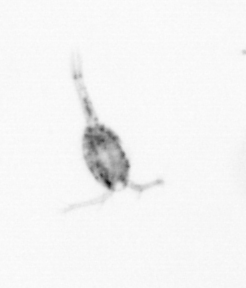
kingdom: Animalia
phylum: Arthropoda
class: Copepoda
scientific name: Copepoda
